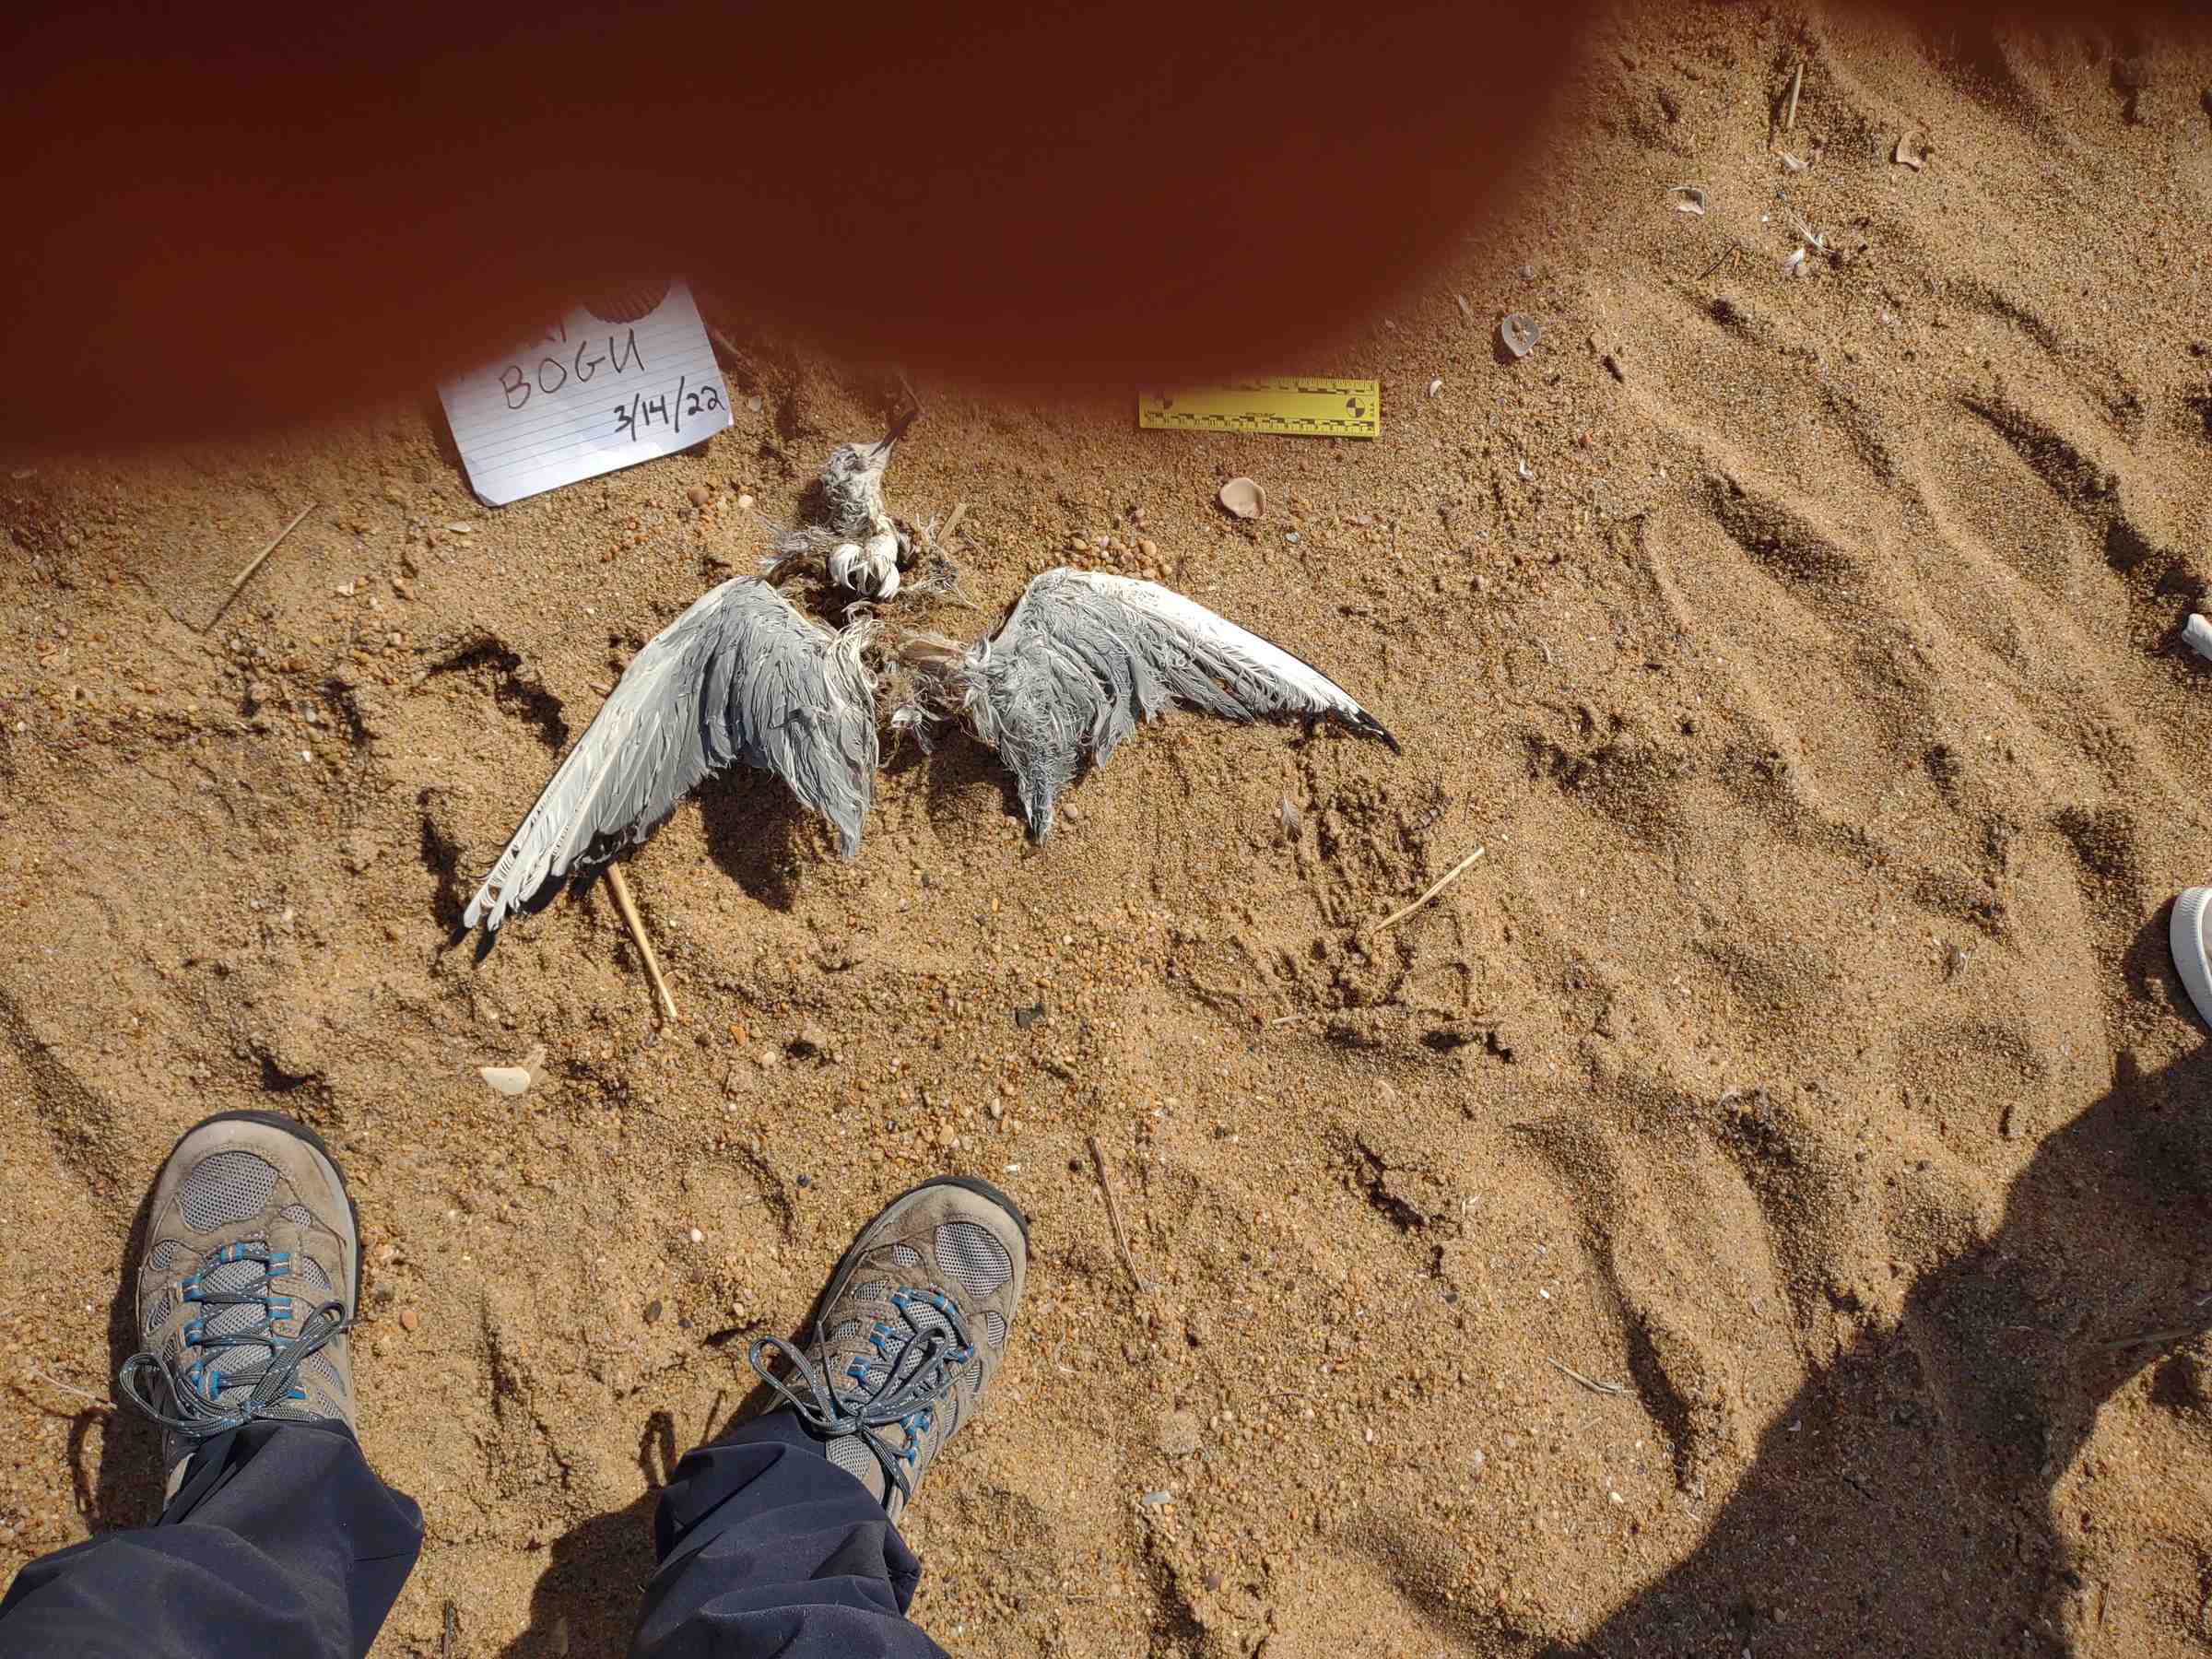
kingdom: Animalia
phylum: Chordata
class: Aves
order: Charadriiformes
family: Laridae
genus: Chroicocephalus
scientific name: Chroicocephalus philadelphia
